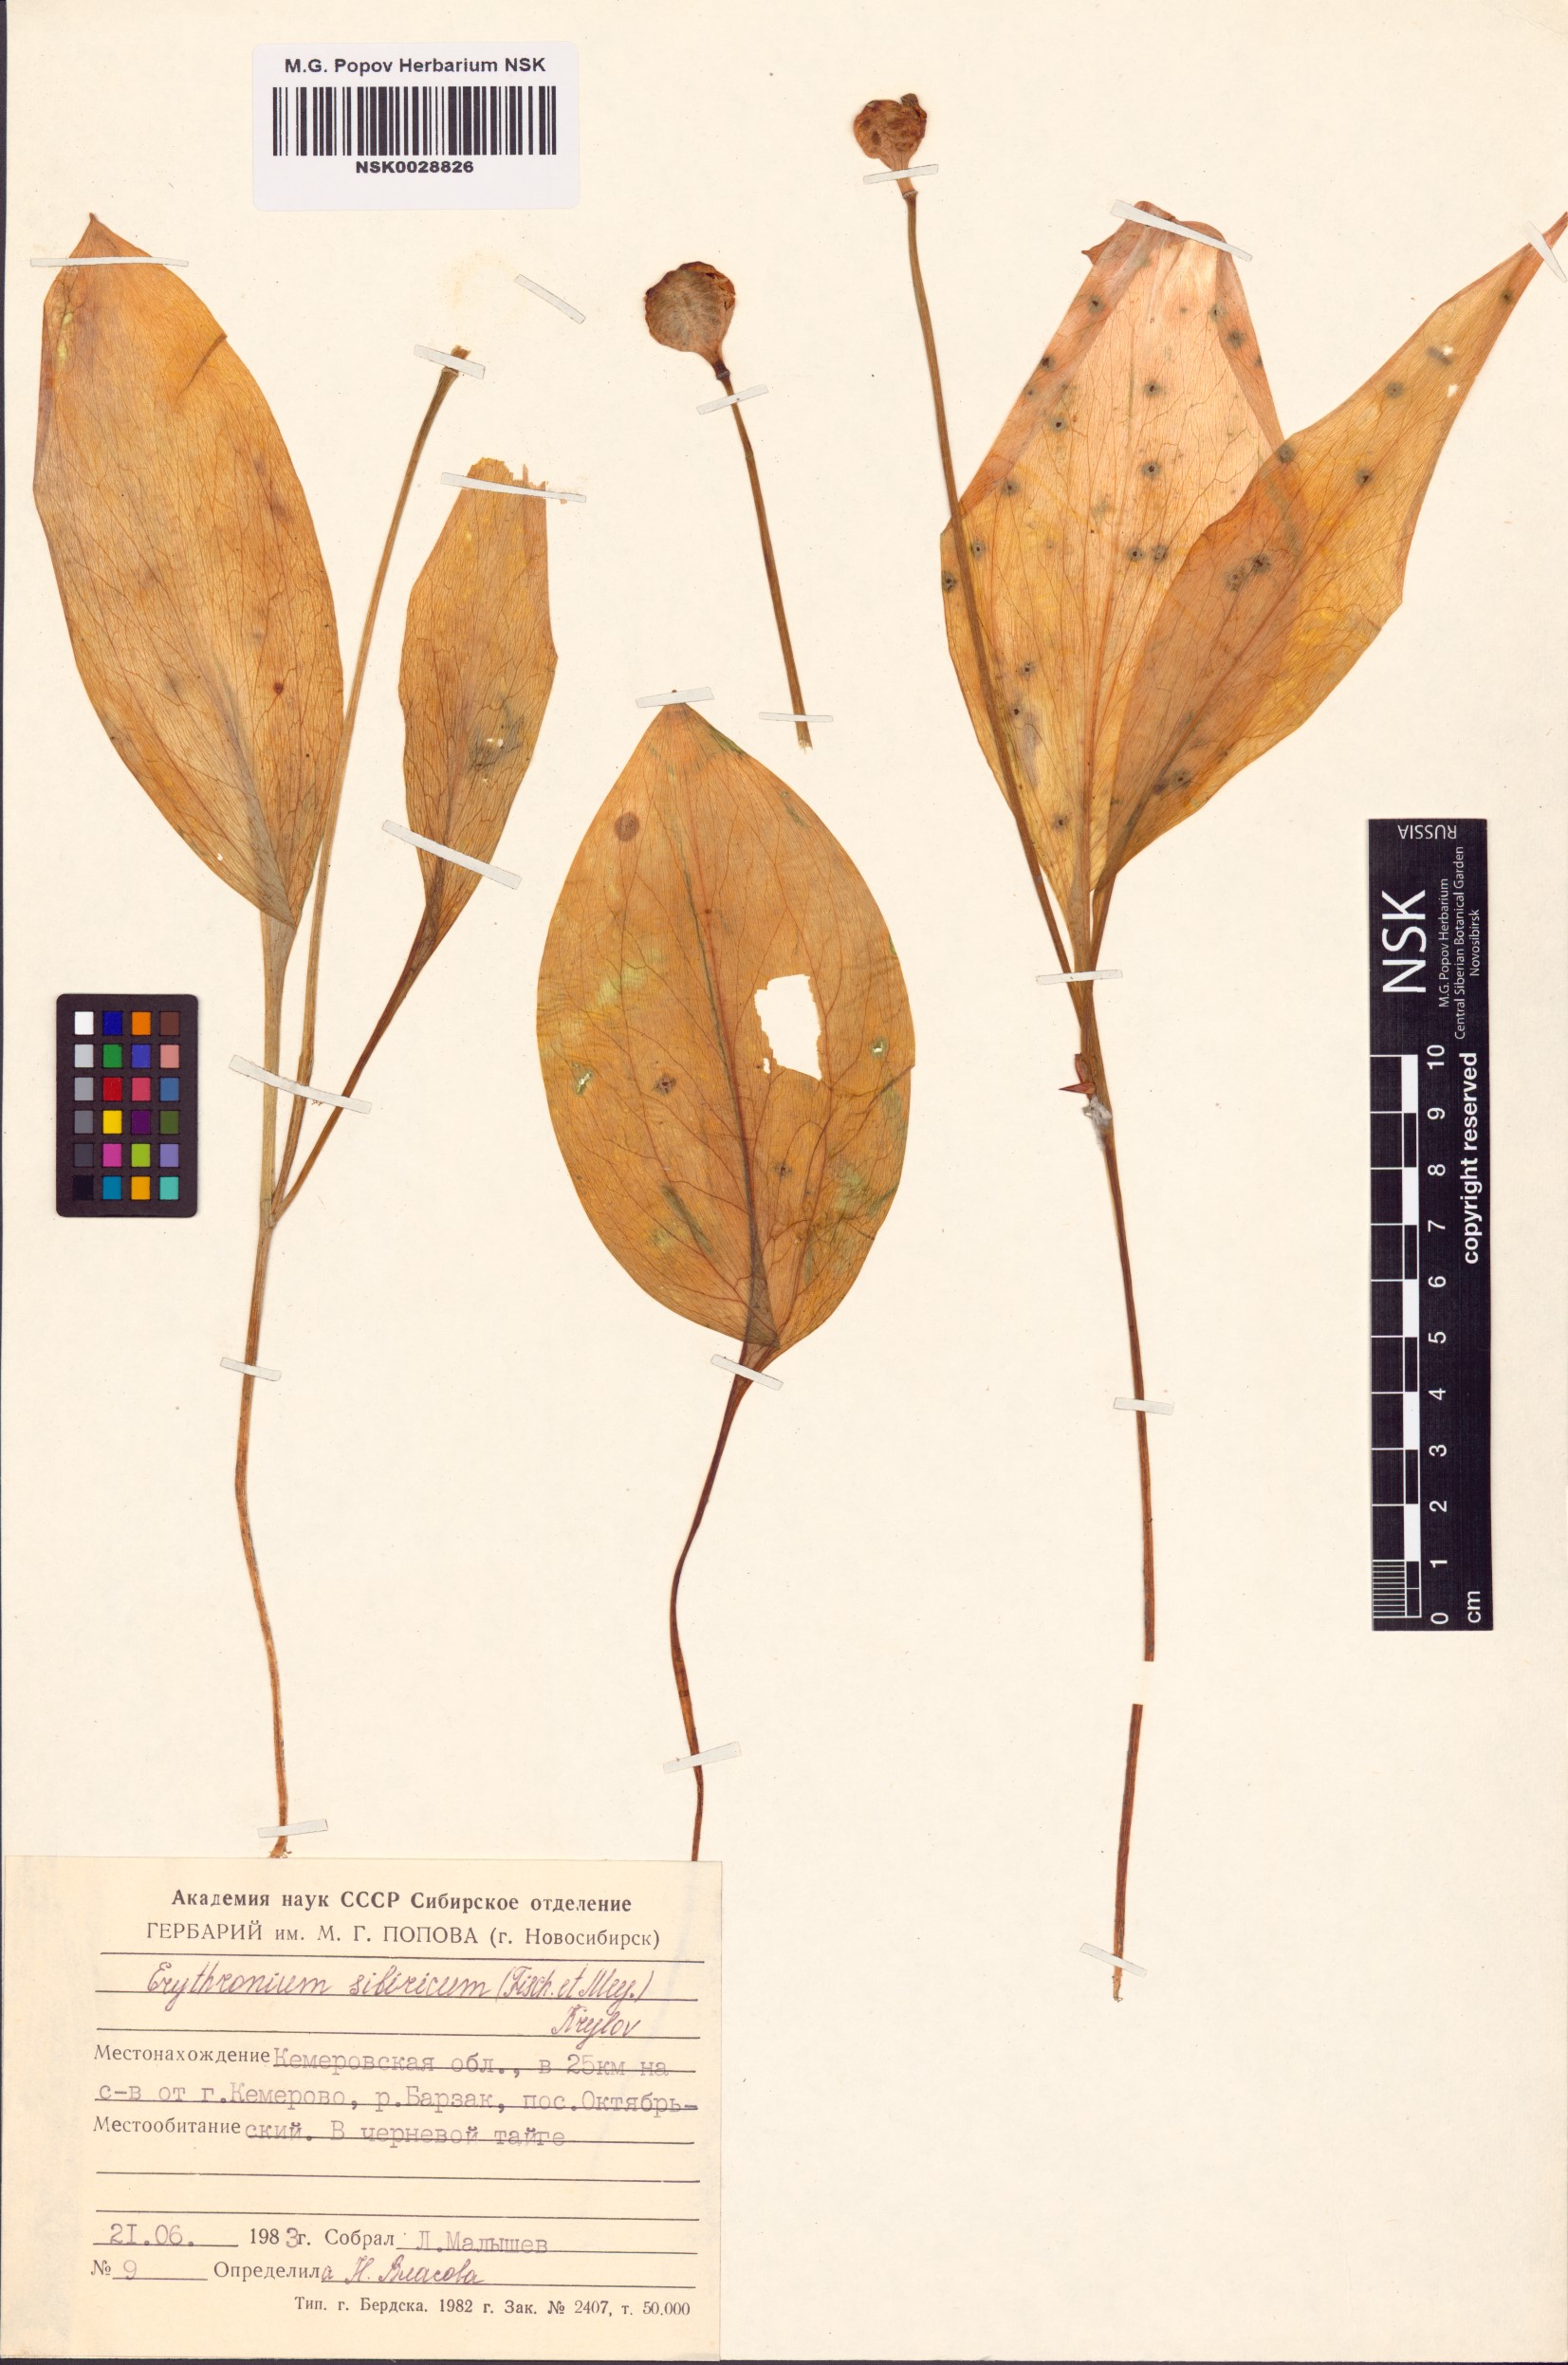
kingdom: Plantae
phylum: Tracheophyta
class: Liliopsida
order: Liliales
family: Liliaceae
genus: Erythronium
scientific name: Erythronium sibiricum
